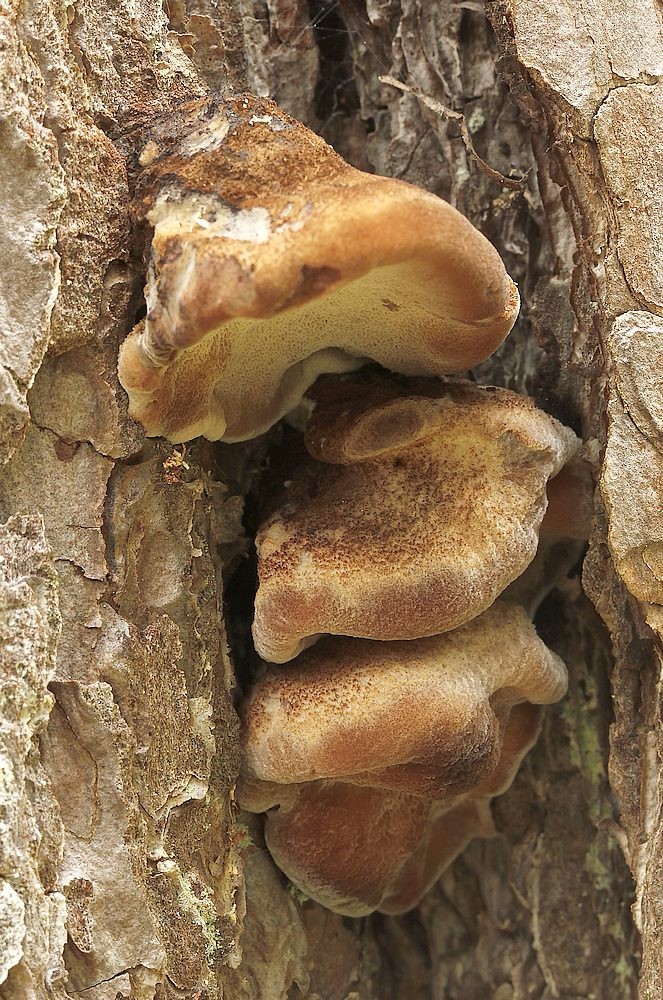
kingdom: Fungi
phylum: Basidiomycota
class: Agaricomycetes
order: Polyporales
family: Ischnodermataceae
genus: Ischnoderma
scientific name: Ischnoderma benzoinum
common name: gran-tjæreporesvamp
